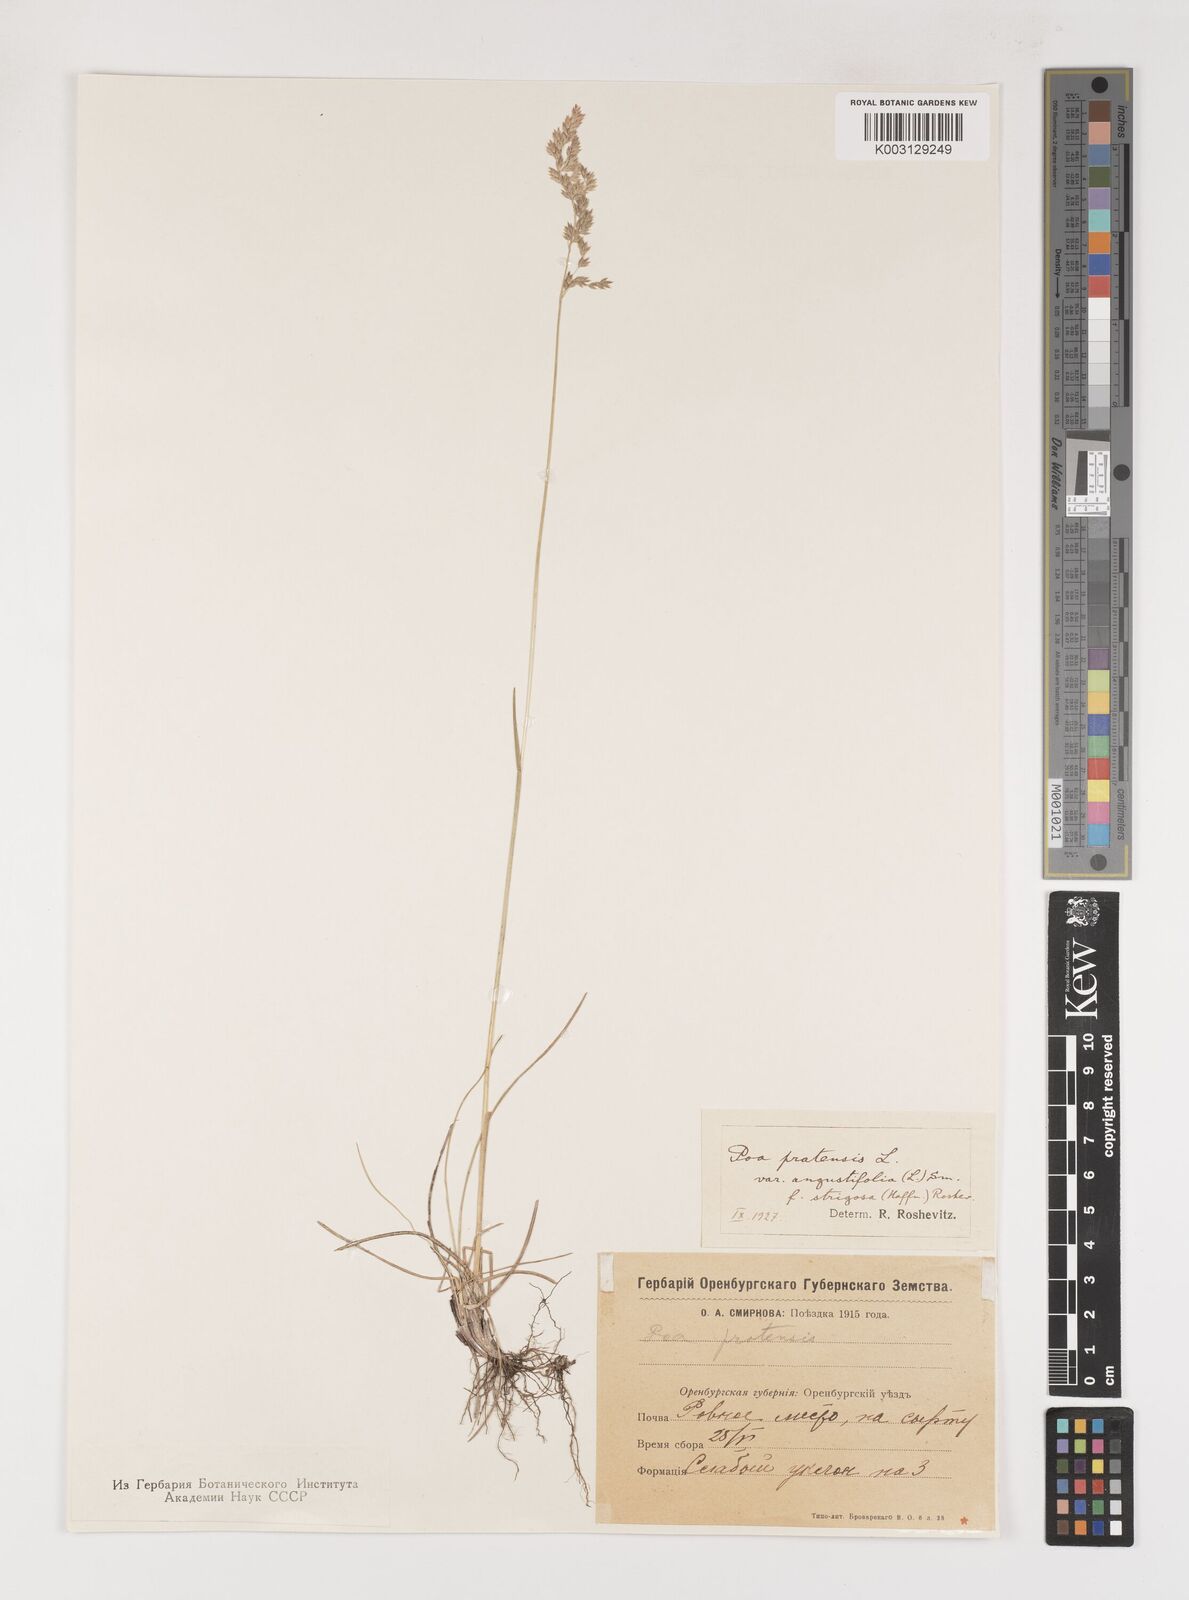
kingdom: Plantae
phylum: Tracheophyta
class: Liliopsida
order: Poales
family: Poaceae
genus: Poa
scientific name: Poa angustifolia
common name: Narrow-leaved meadow-grass
